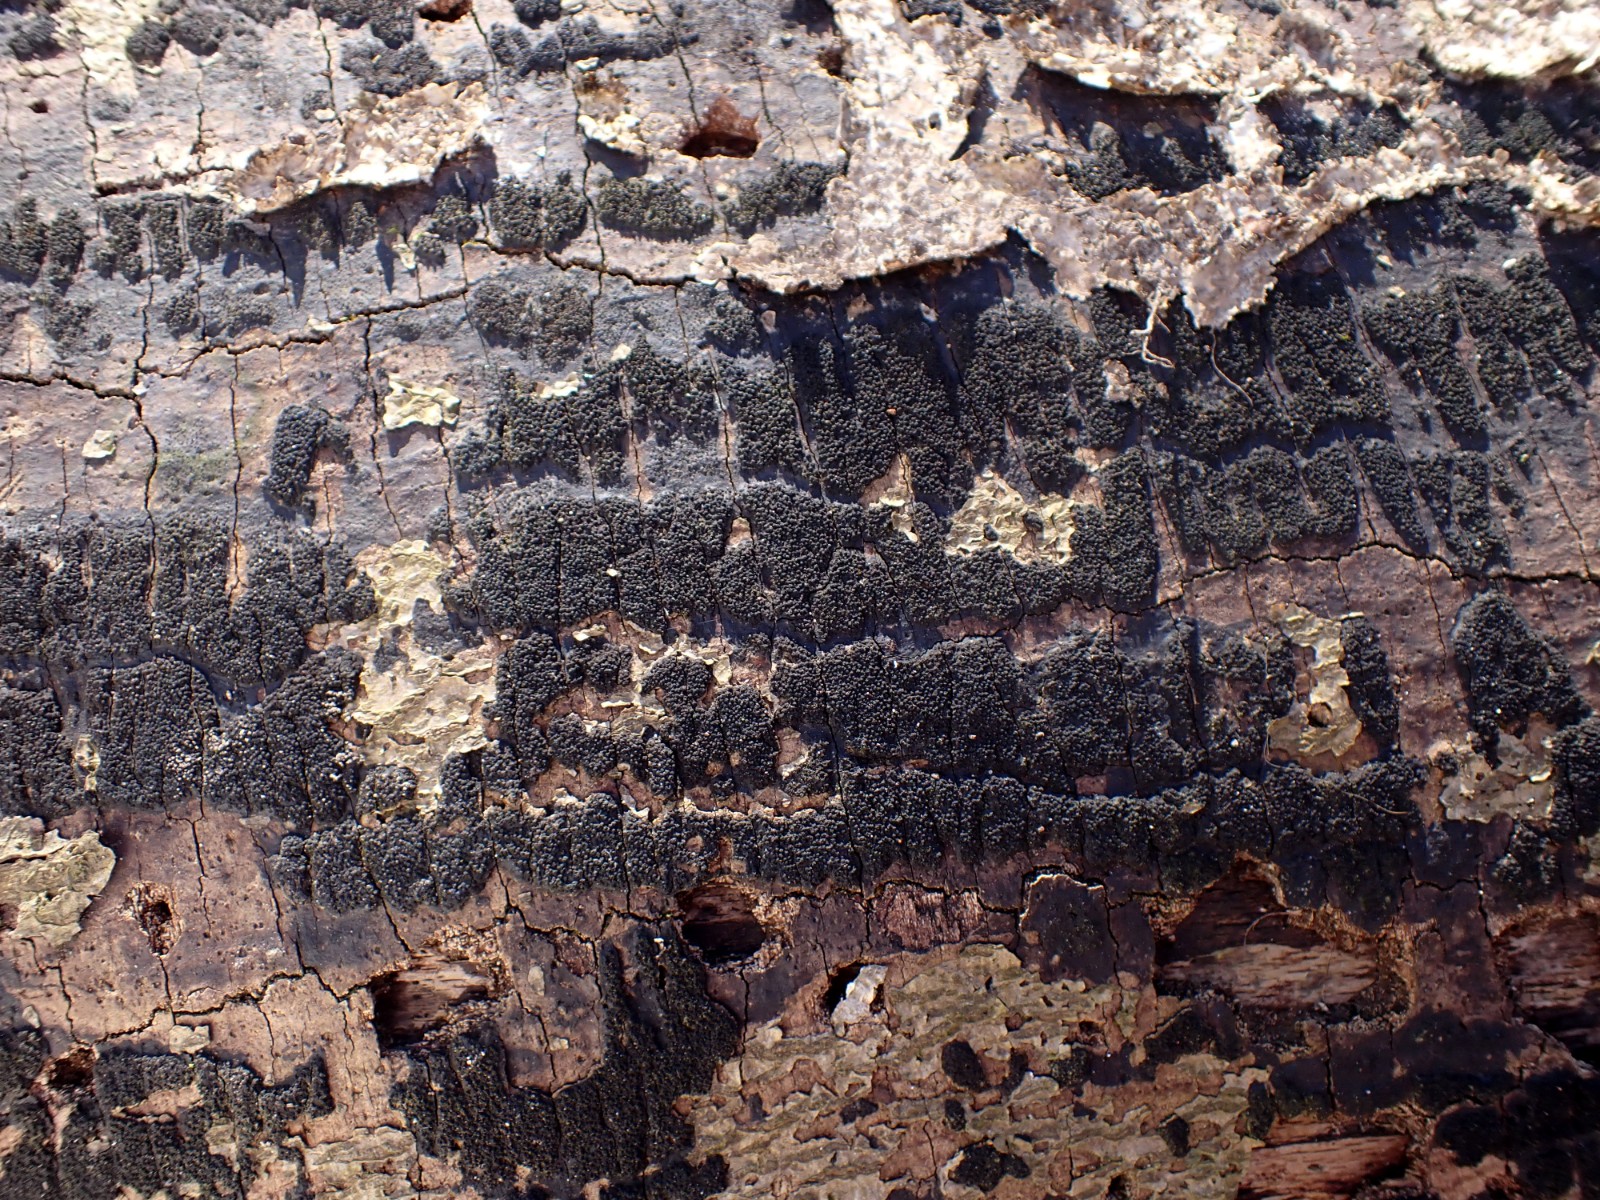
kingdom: Fungi
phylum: Ascomycota
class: Sordariomycetes
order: Xylariales
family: Diatrypaceae
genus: Eutypa
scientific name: Eutypa spinosa
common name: grov kulskorpe
